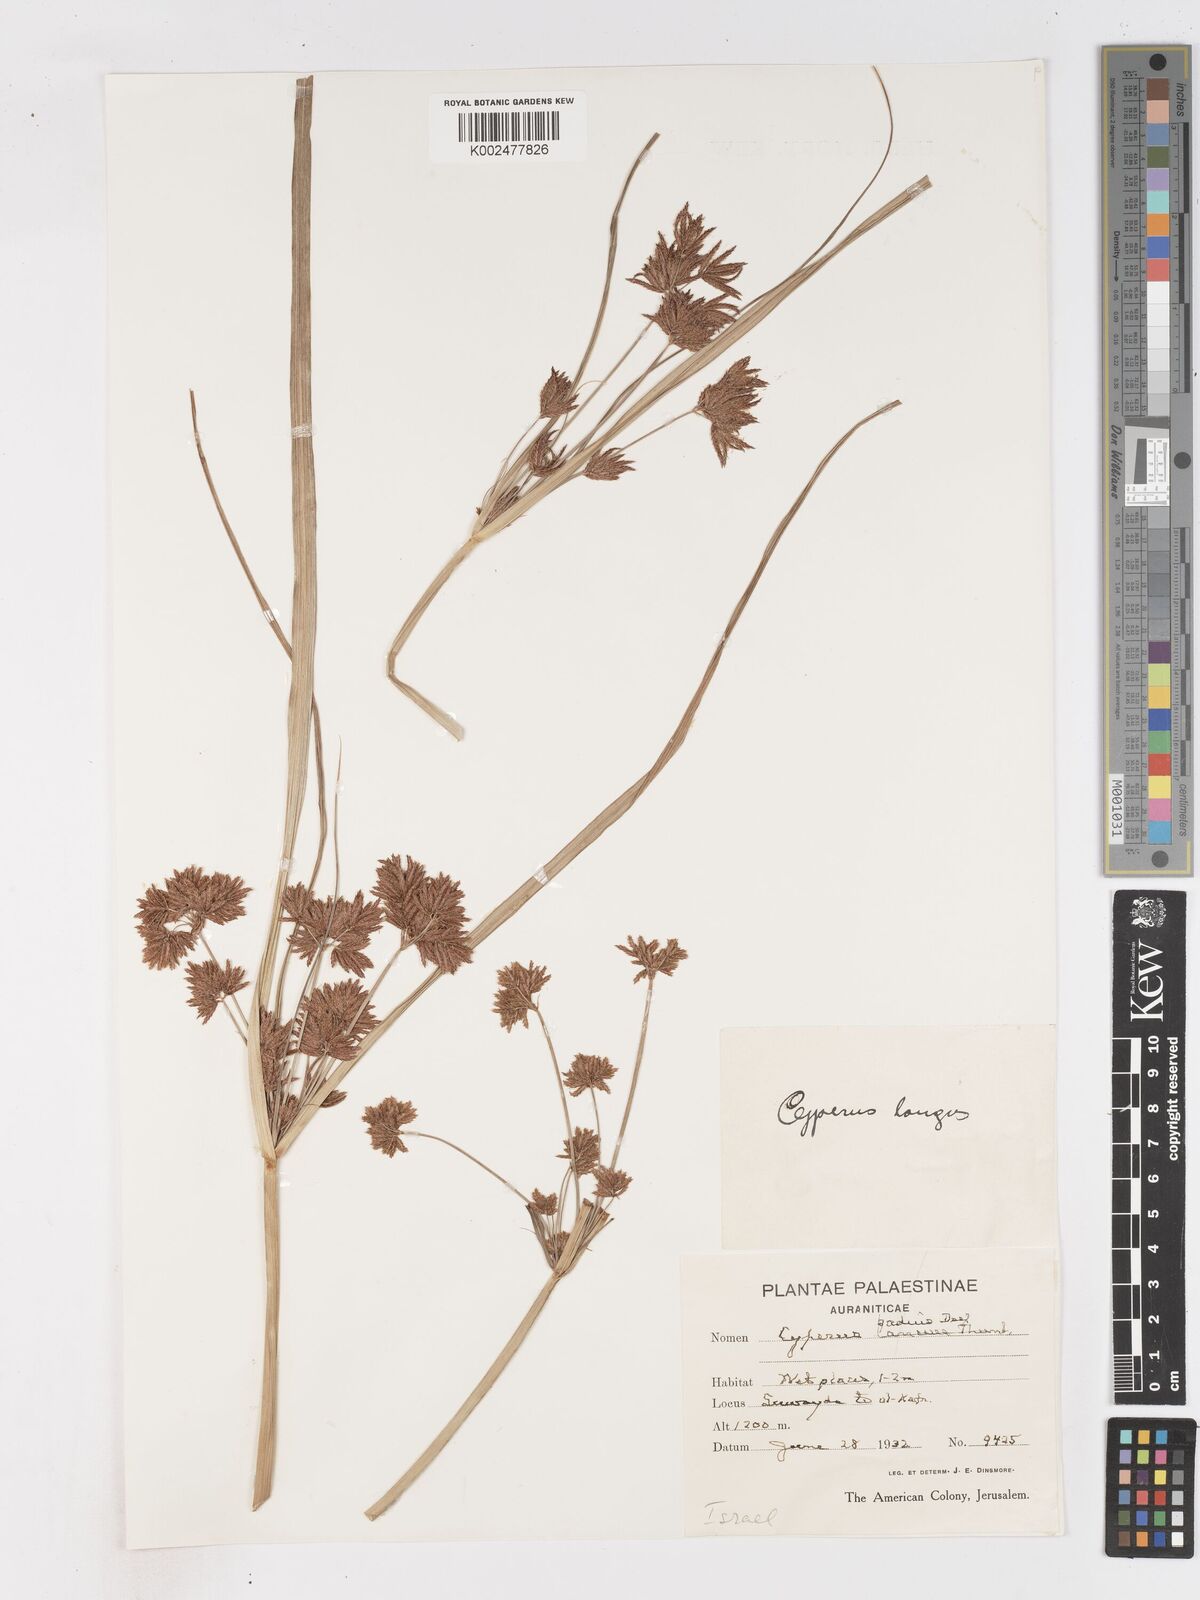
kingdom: Plantae
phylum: Tracheophyta
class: Liliopsida
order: Poales
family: Cyperaceae
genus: Cyperus
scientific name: Cyperus longus
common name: Galingale
